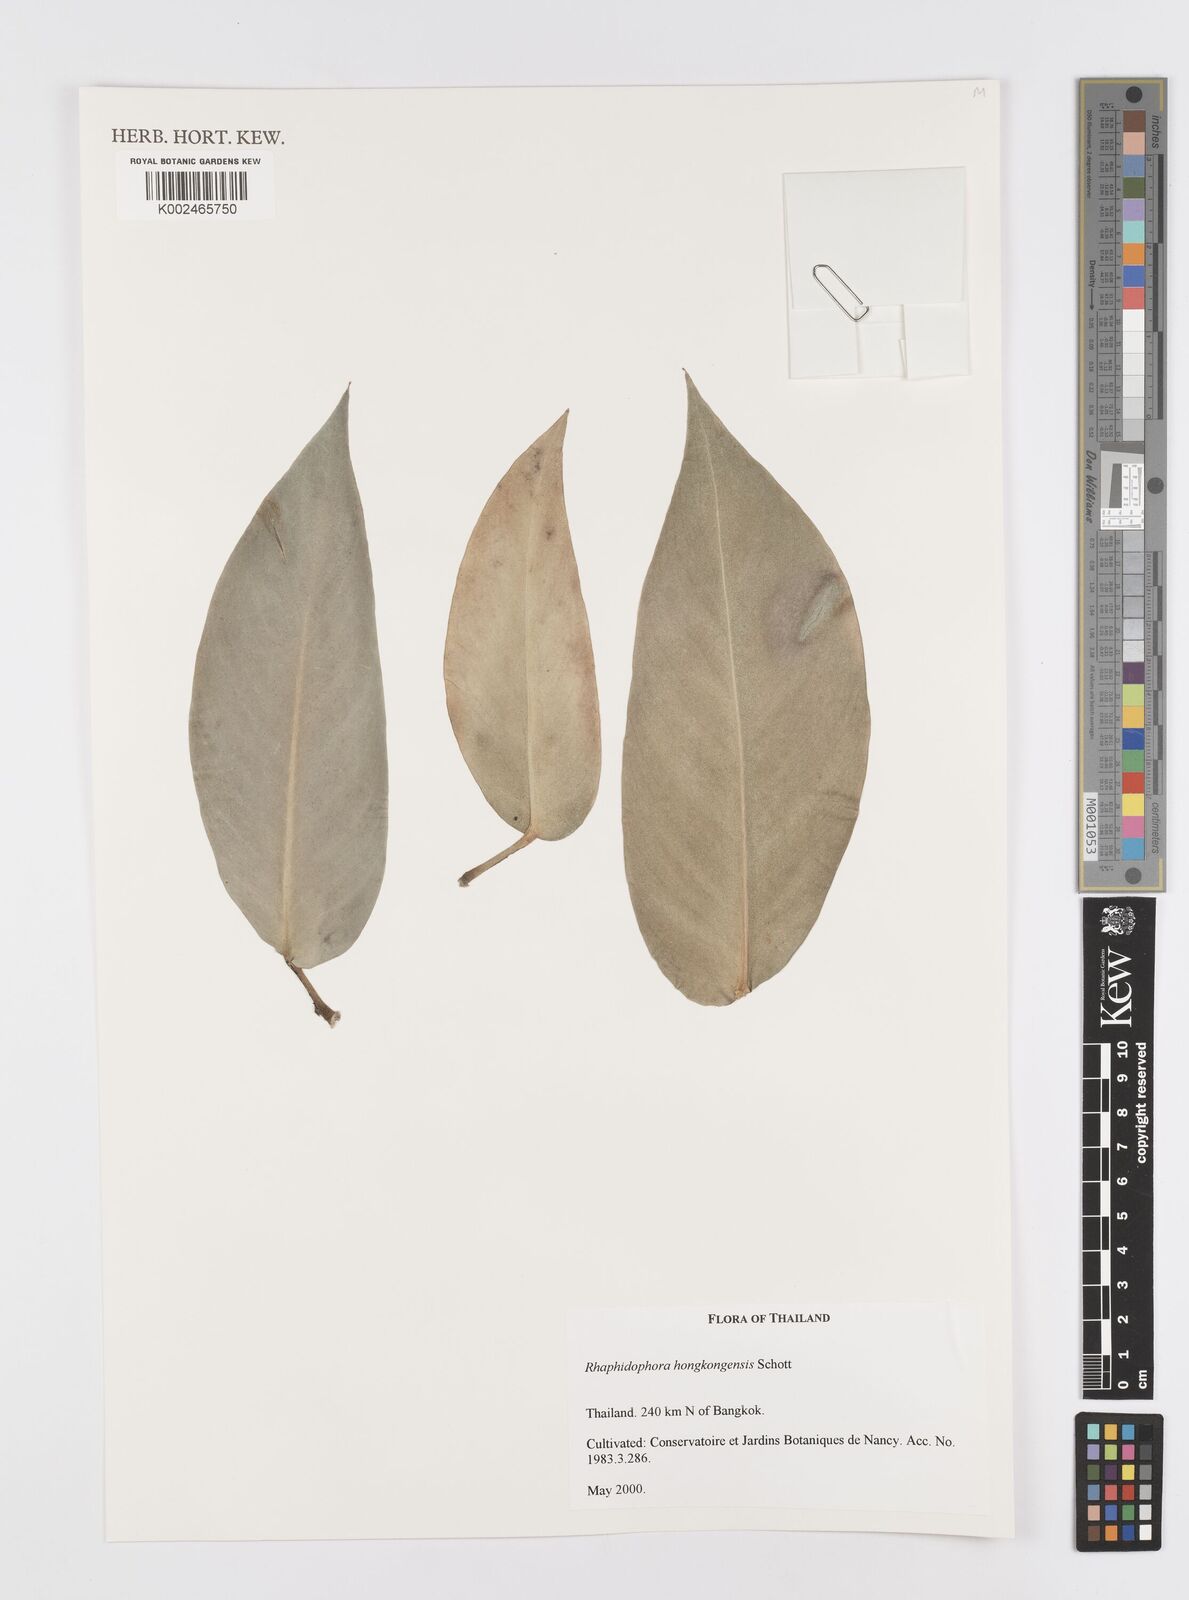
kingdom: Plantae
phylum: Tracheophyta
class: Liliopsida
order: Alismatales
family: Araceae
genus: Rhaphidophora
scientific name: Rhaphidophora
